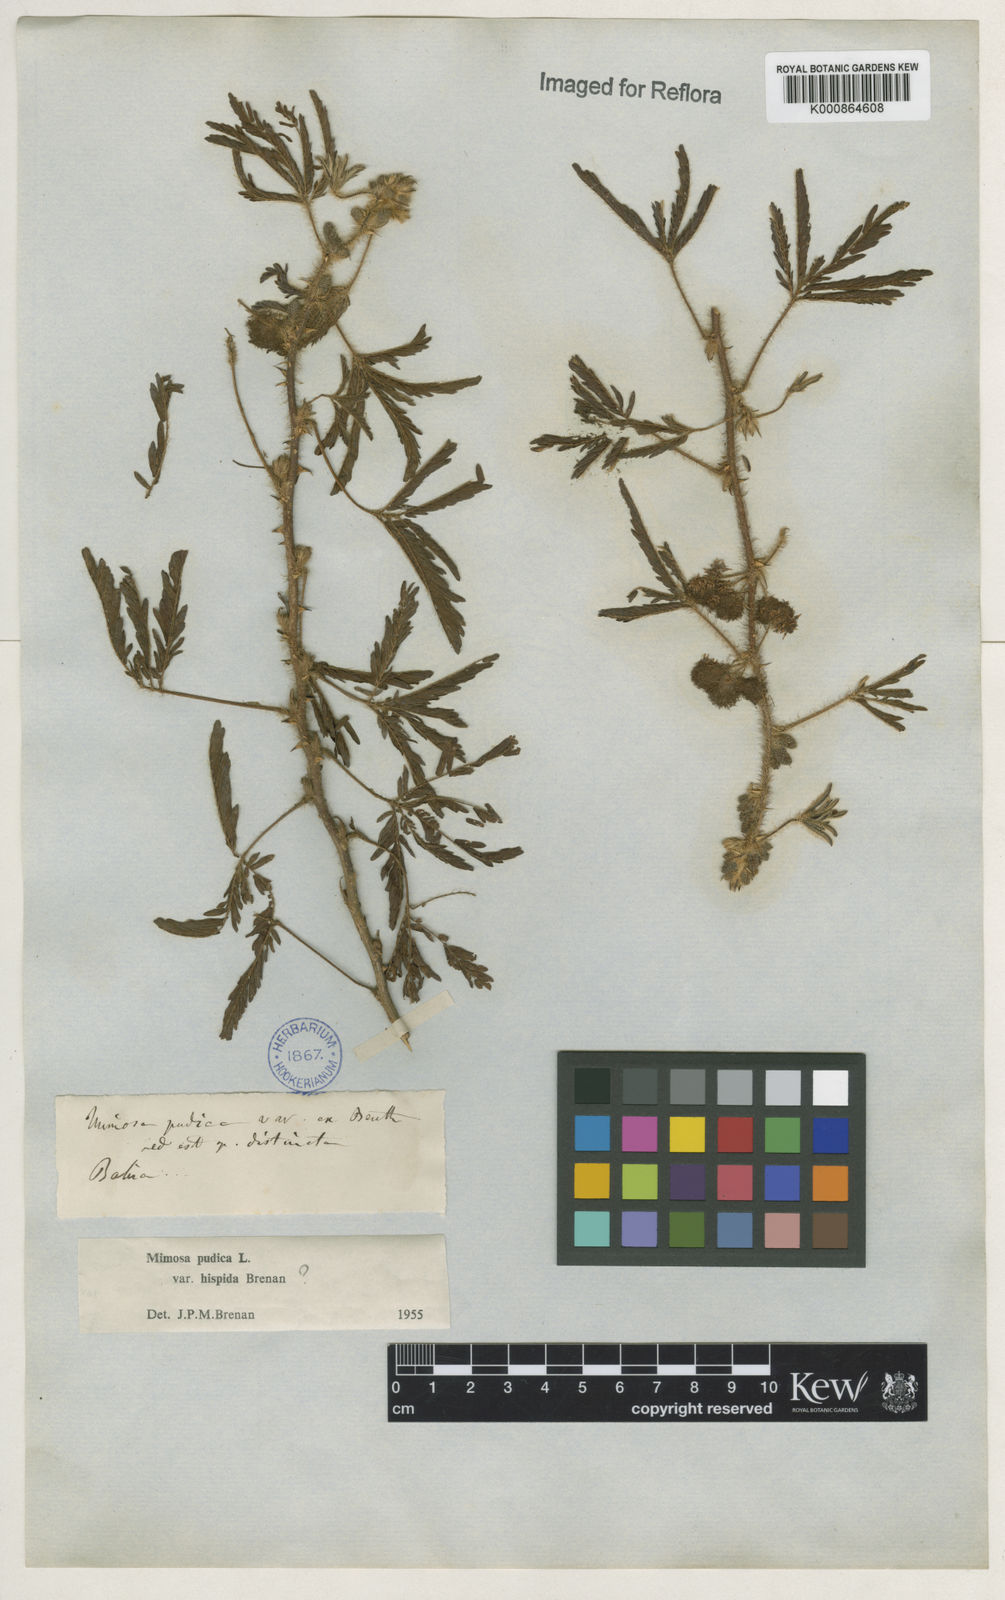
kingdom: Plantae
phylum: Tracheophyta
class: Magnoliopsida
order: Fabales
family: Fabaceae
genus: Mimosa
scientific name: Mimosa pudica
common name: Sensitive plant
